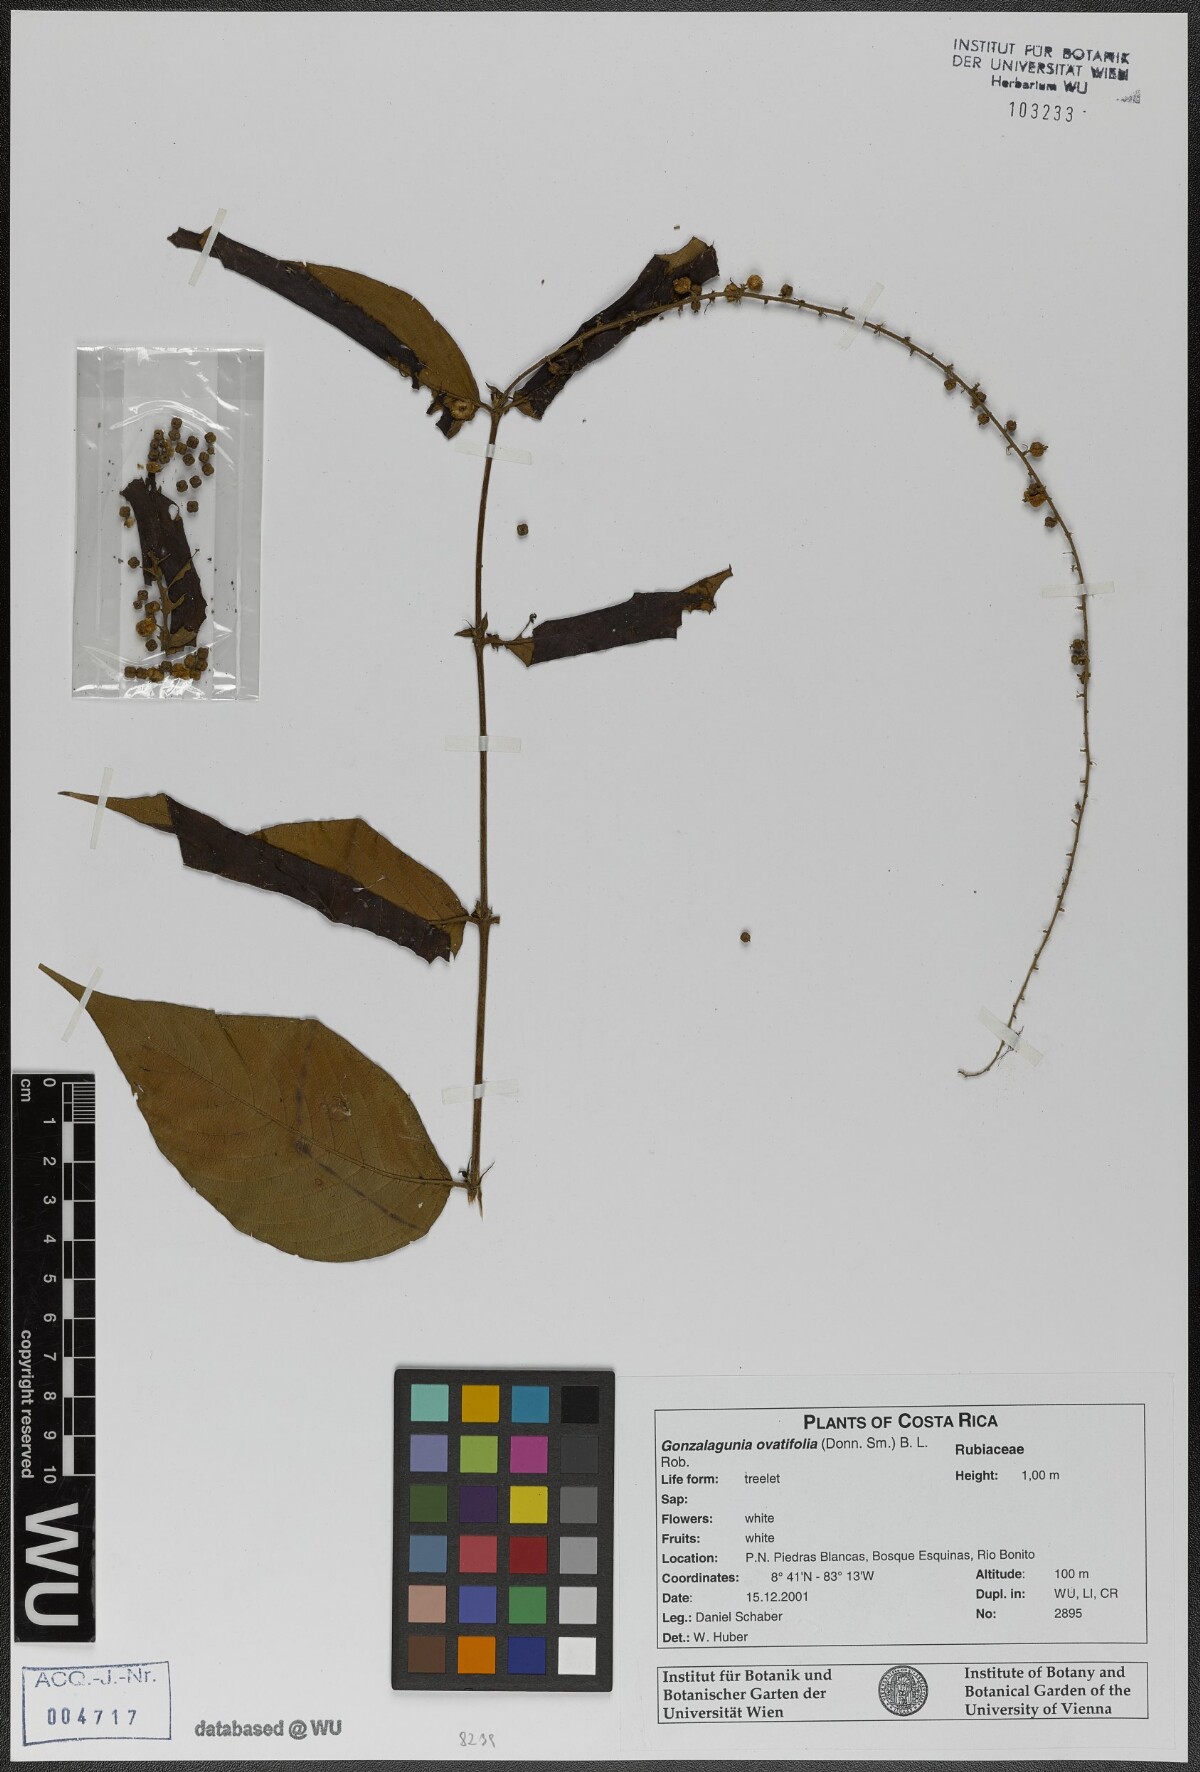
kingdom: Plantae
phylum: Tracheophyta
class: Magnoliopsida
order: Gentianales
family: Rubiaceae
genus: Gonzalagunia
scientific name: Gonzalagunia ovatifolia
